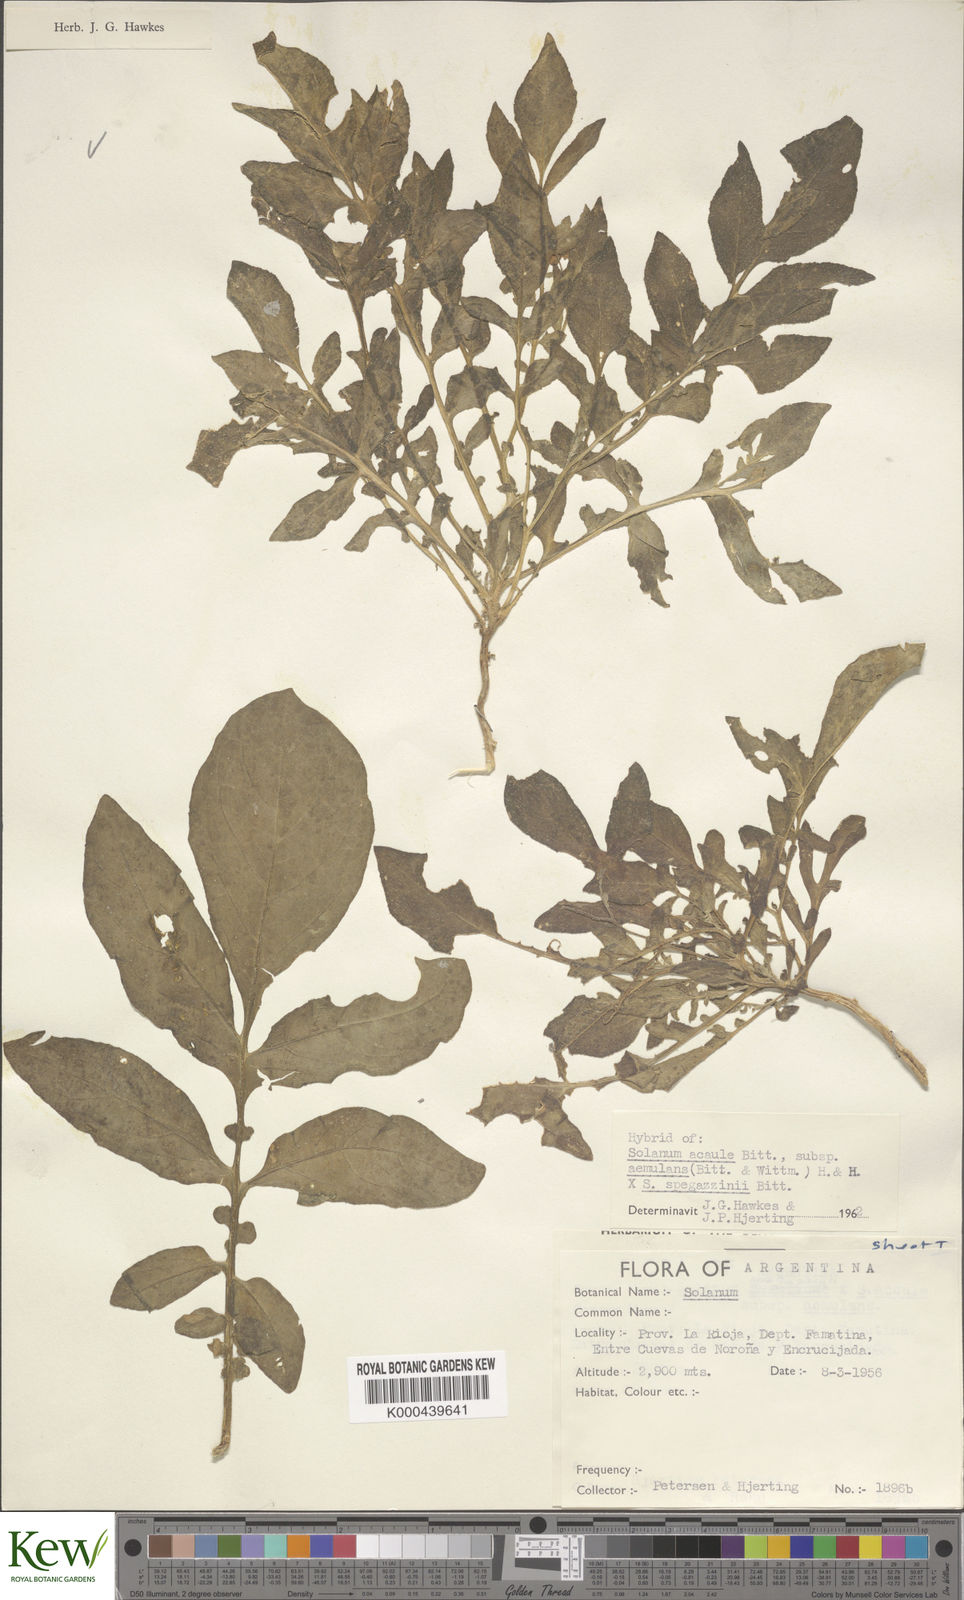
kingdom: Plantae
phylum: Tracheophyta
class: Magnoliopsida
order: Solanales
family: Solanaceae
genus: Solanum
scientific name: Solanum aemulans
